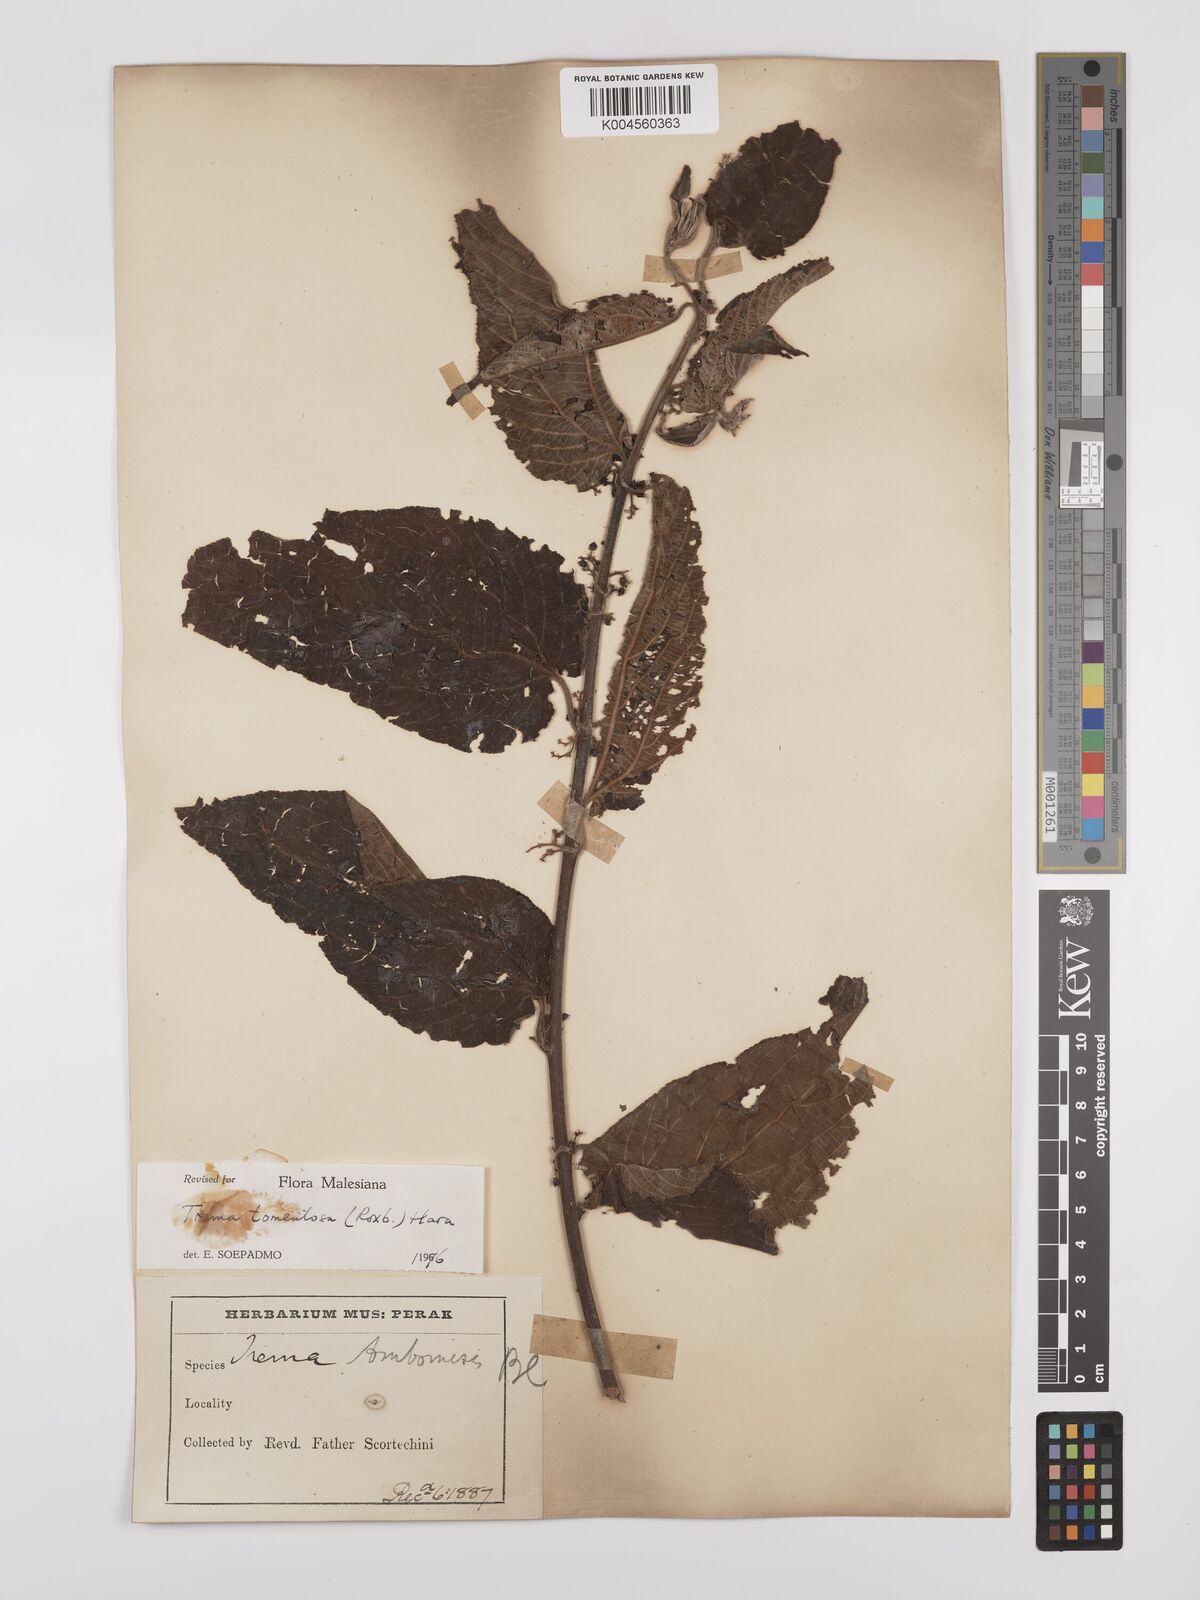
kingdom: Plantae
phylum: Tracheophyta
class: Magnoliopsida
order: Rosales
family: Cannabaceae
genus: Trema
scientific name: Trema tomentosum
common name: Peach-leaf-poisonbush
